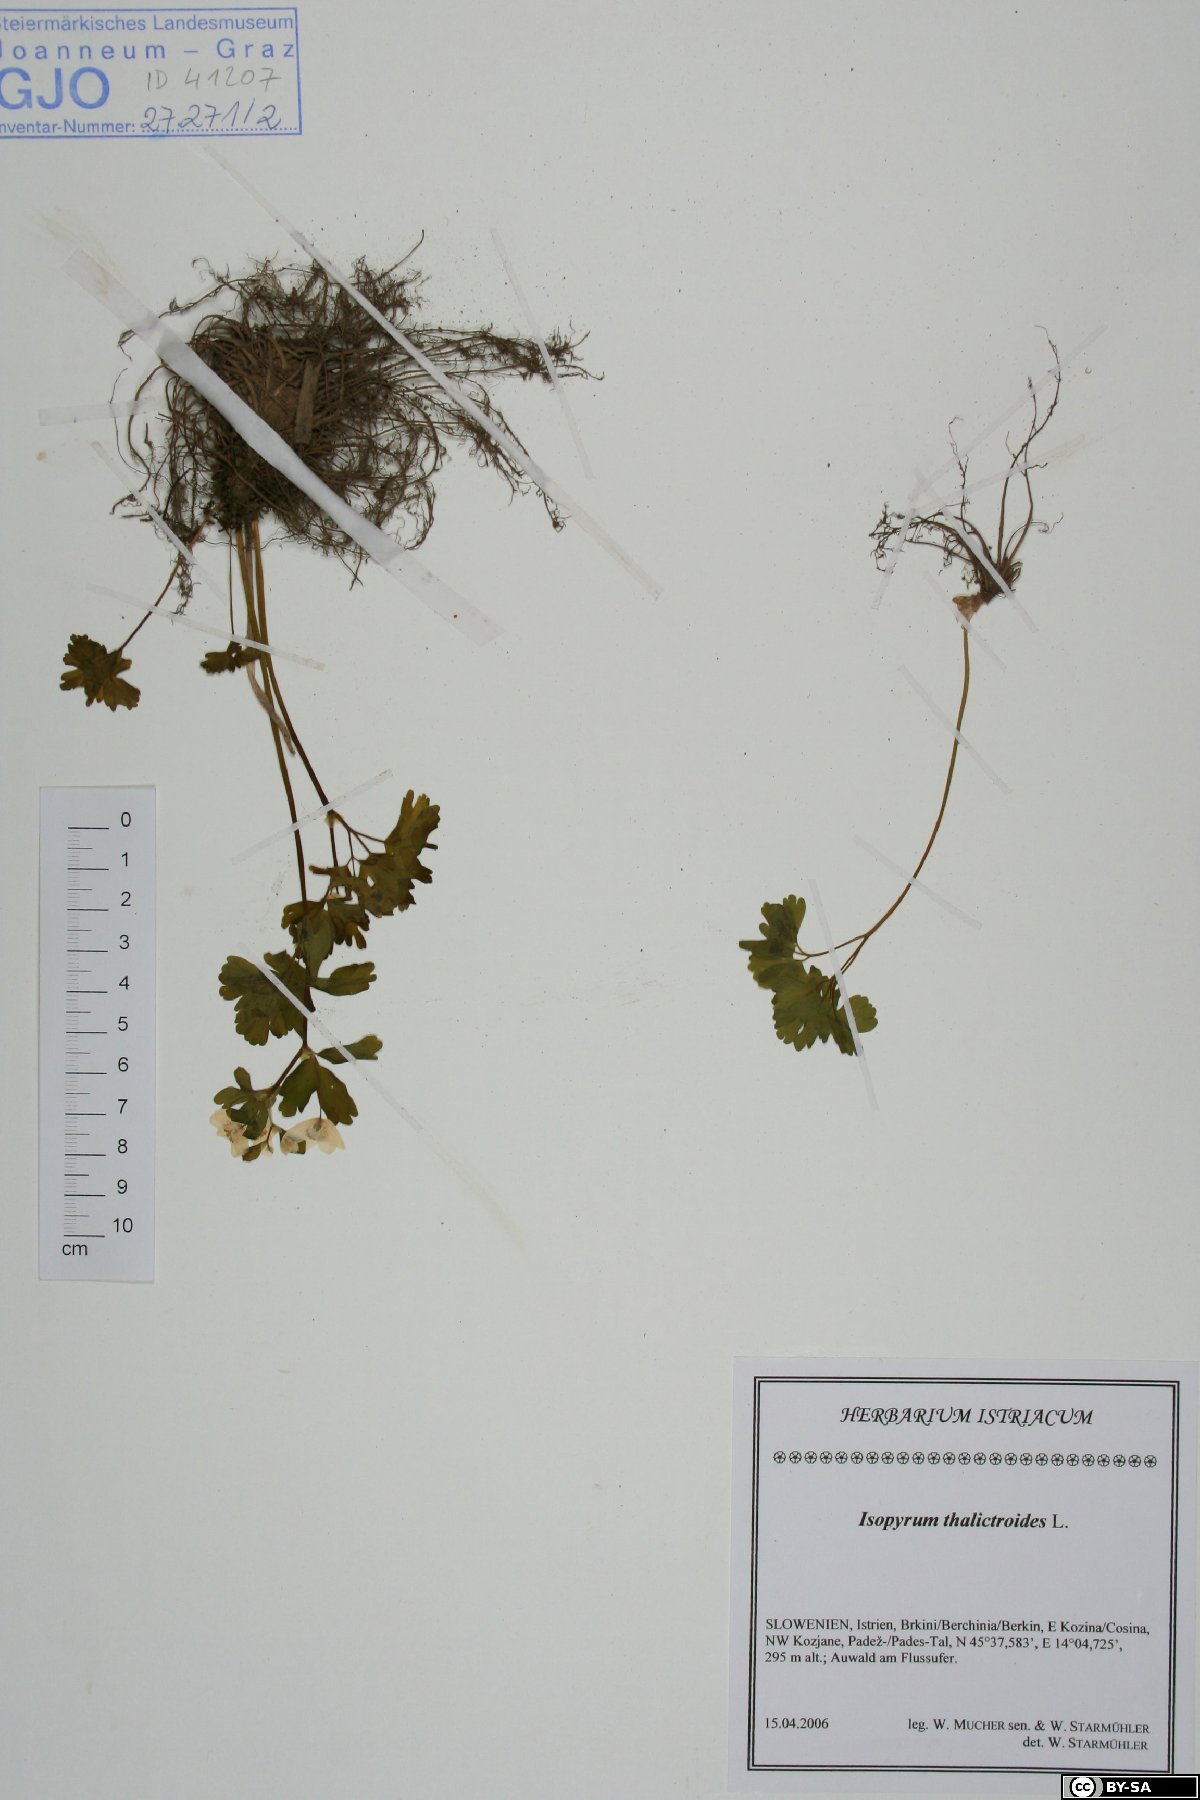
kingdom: Plantae
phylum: Tracheophyta
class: Magnoliopsida
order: Ranunculales
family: Ranunculaceae
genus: Isopyrum
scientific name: Isopyrum thalictroides
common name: Isopyrum
